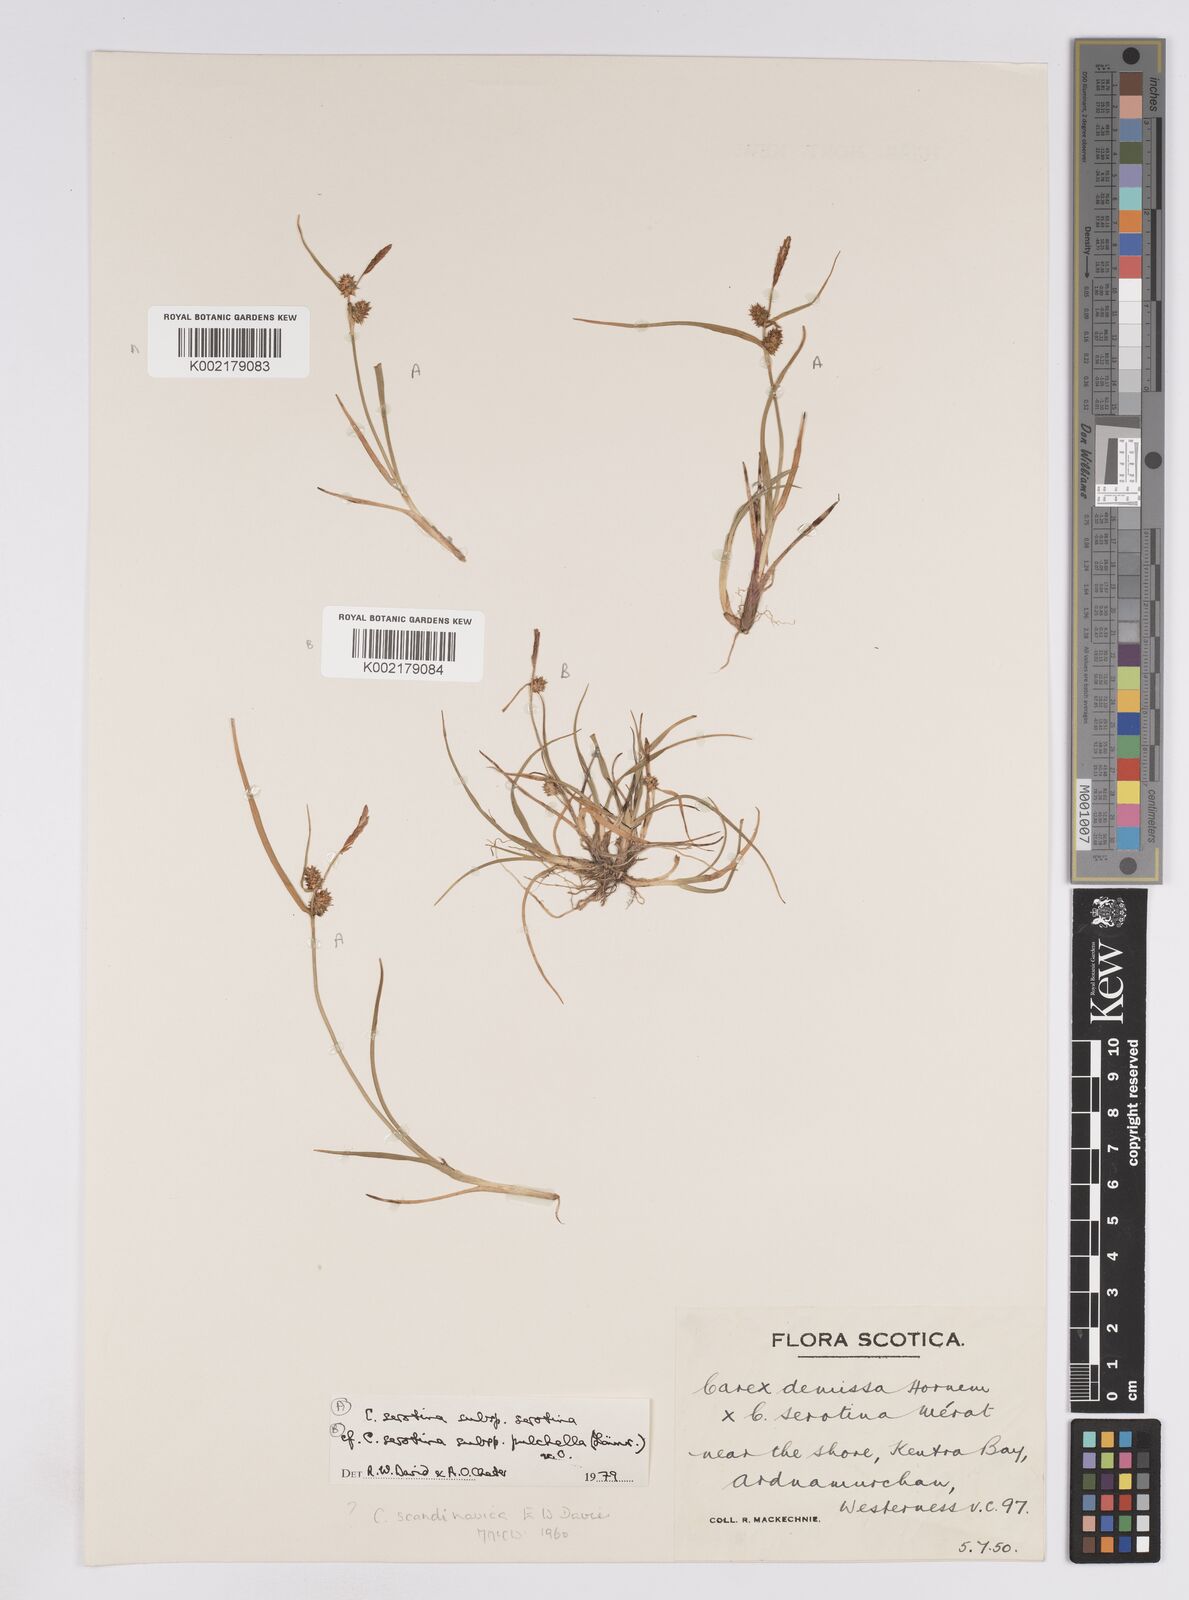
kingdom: Plantae
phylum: Tracheophyta
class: Liliopsida
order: Poales
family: Cyperaceae
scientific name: Cyperaceae
